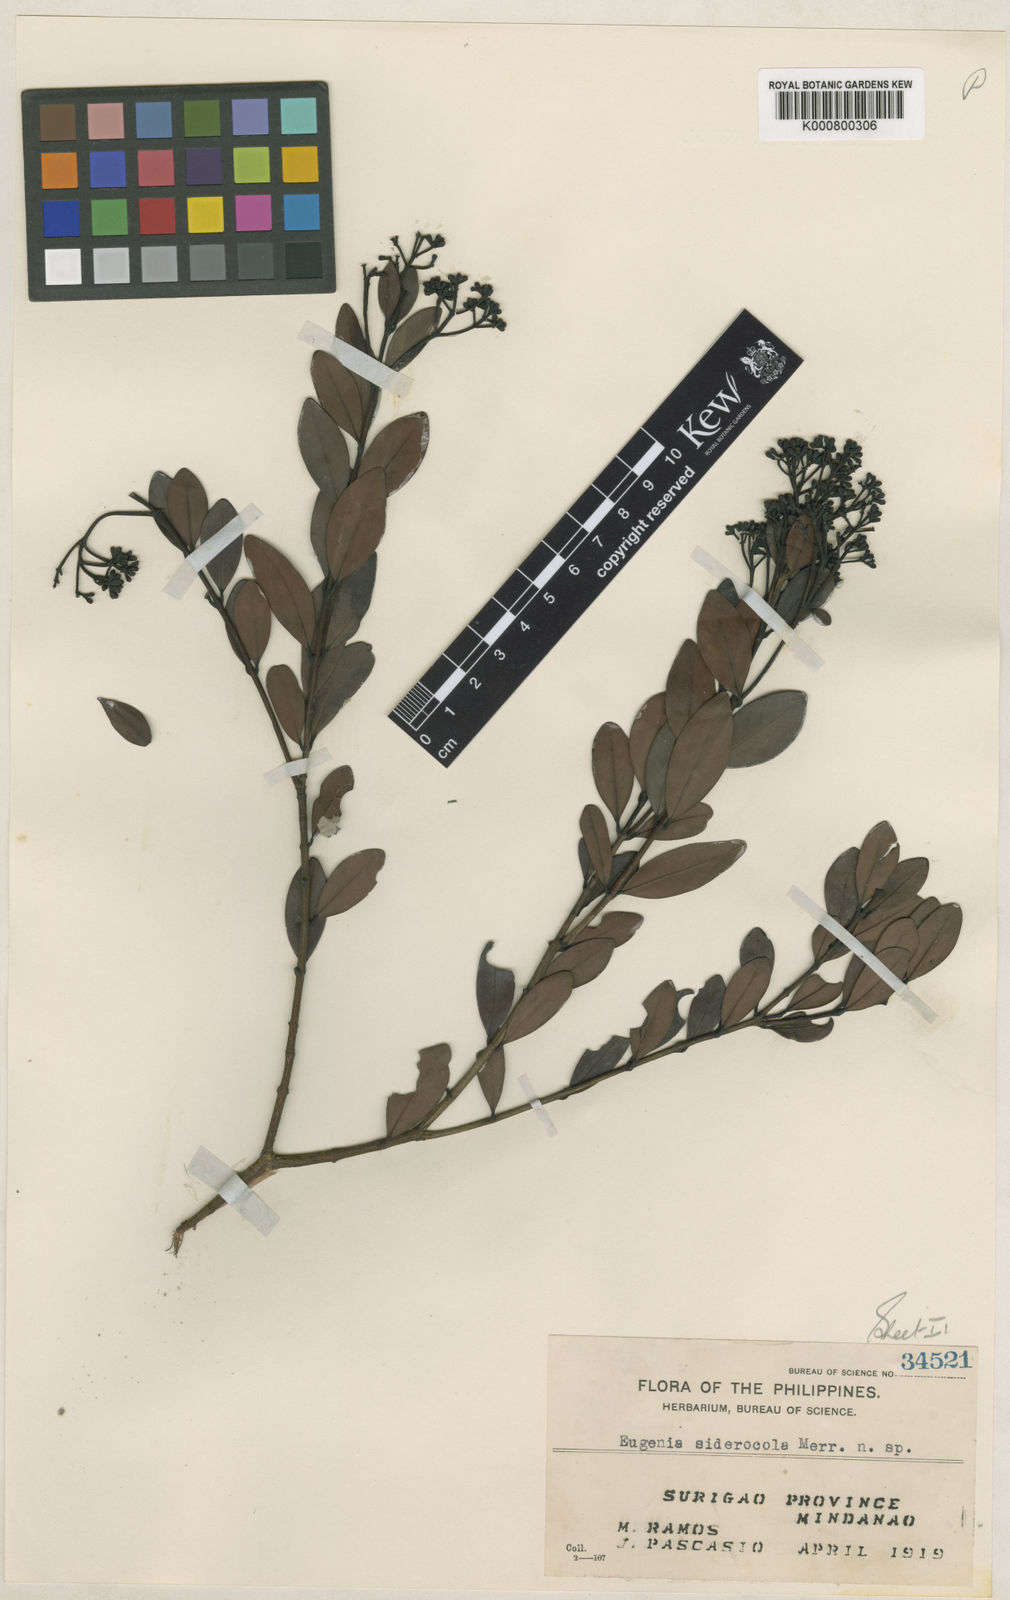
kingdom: Plantae
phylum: Tracheophyta
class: Magnoliopsida
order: Myrtales
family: Myrtaceae
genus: Syzygium
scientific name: Syzygium siderocola
